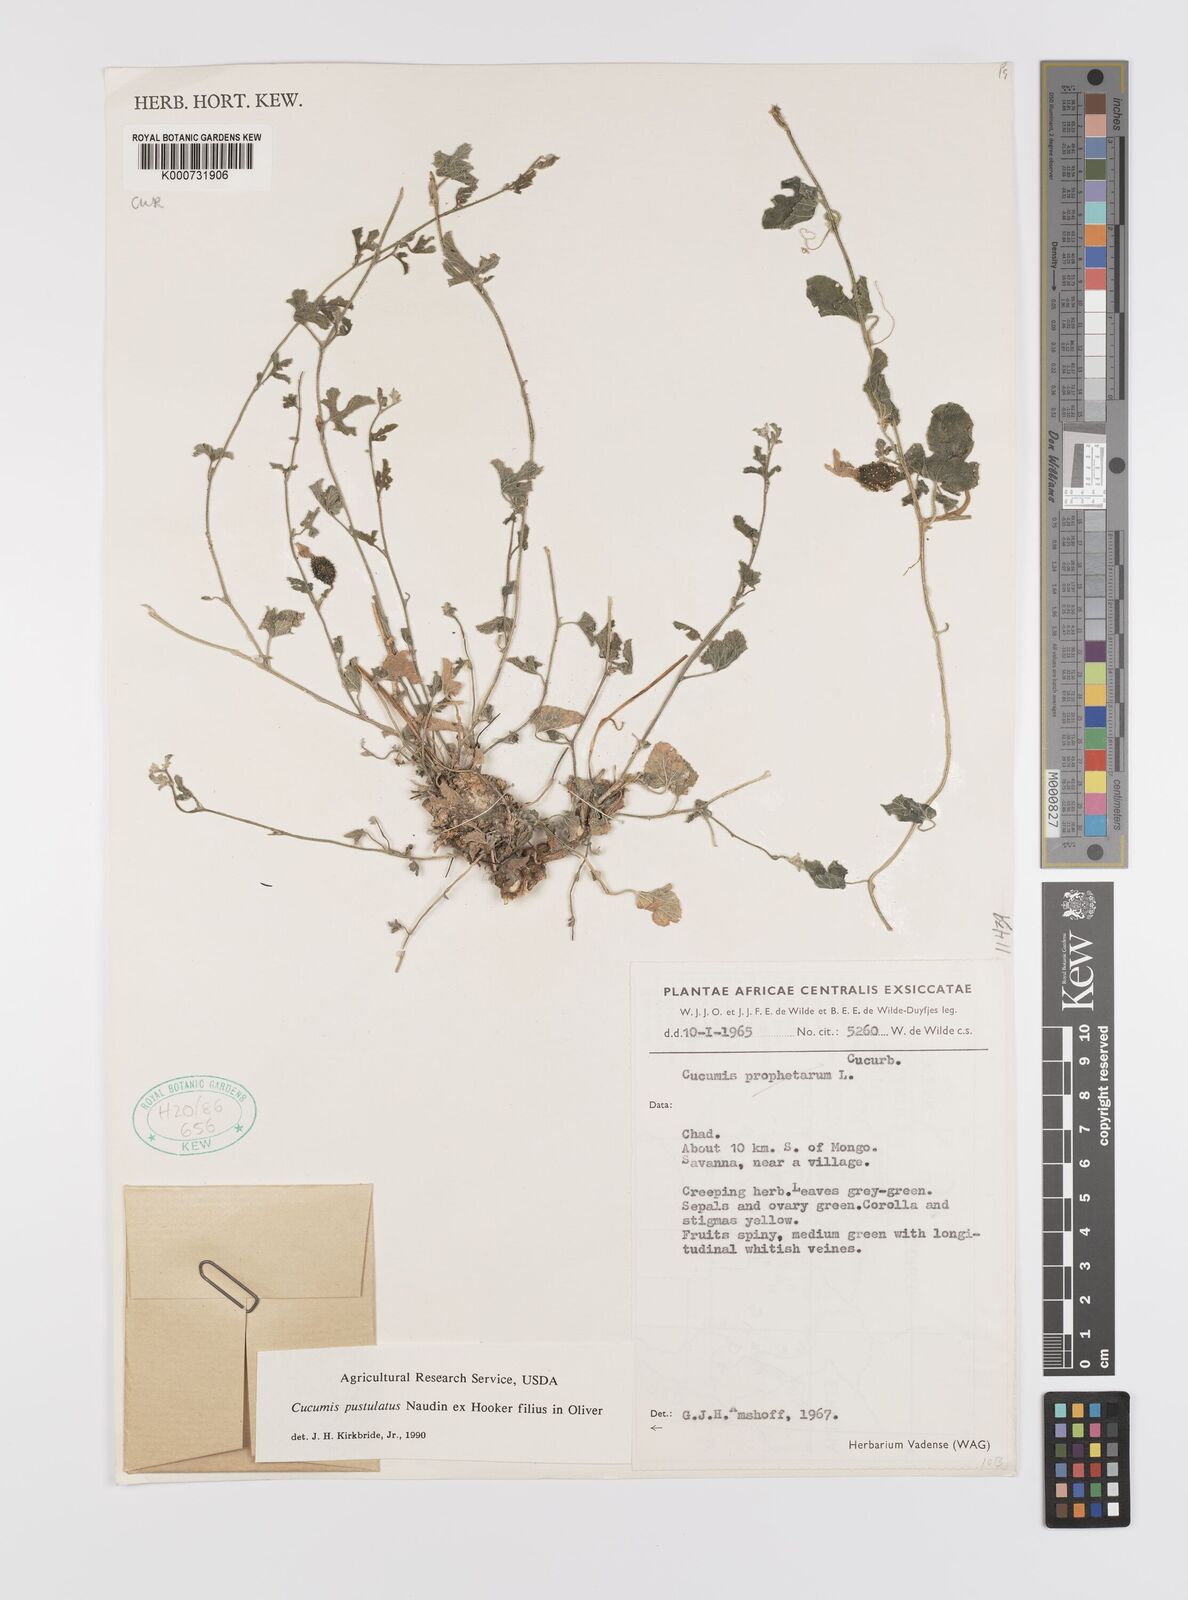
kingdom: Plantae
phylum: Tracheophyta
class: Magnoliopsida
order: Cucurbitales
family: Cucurbitaceae
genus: Cucumis
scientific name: Cucumis pustulatus
